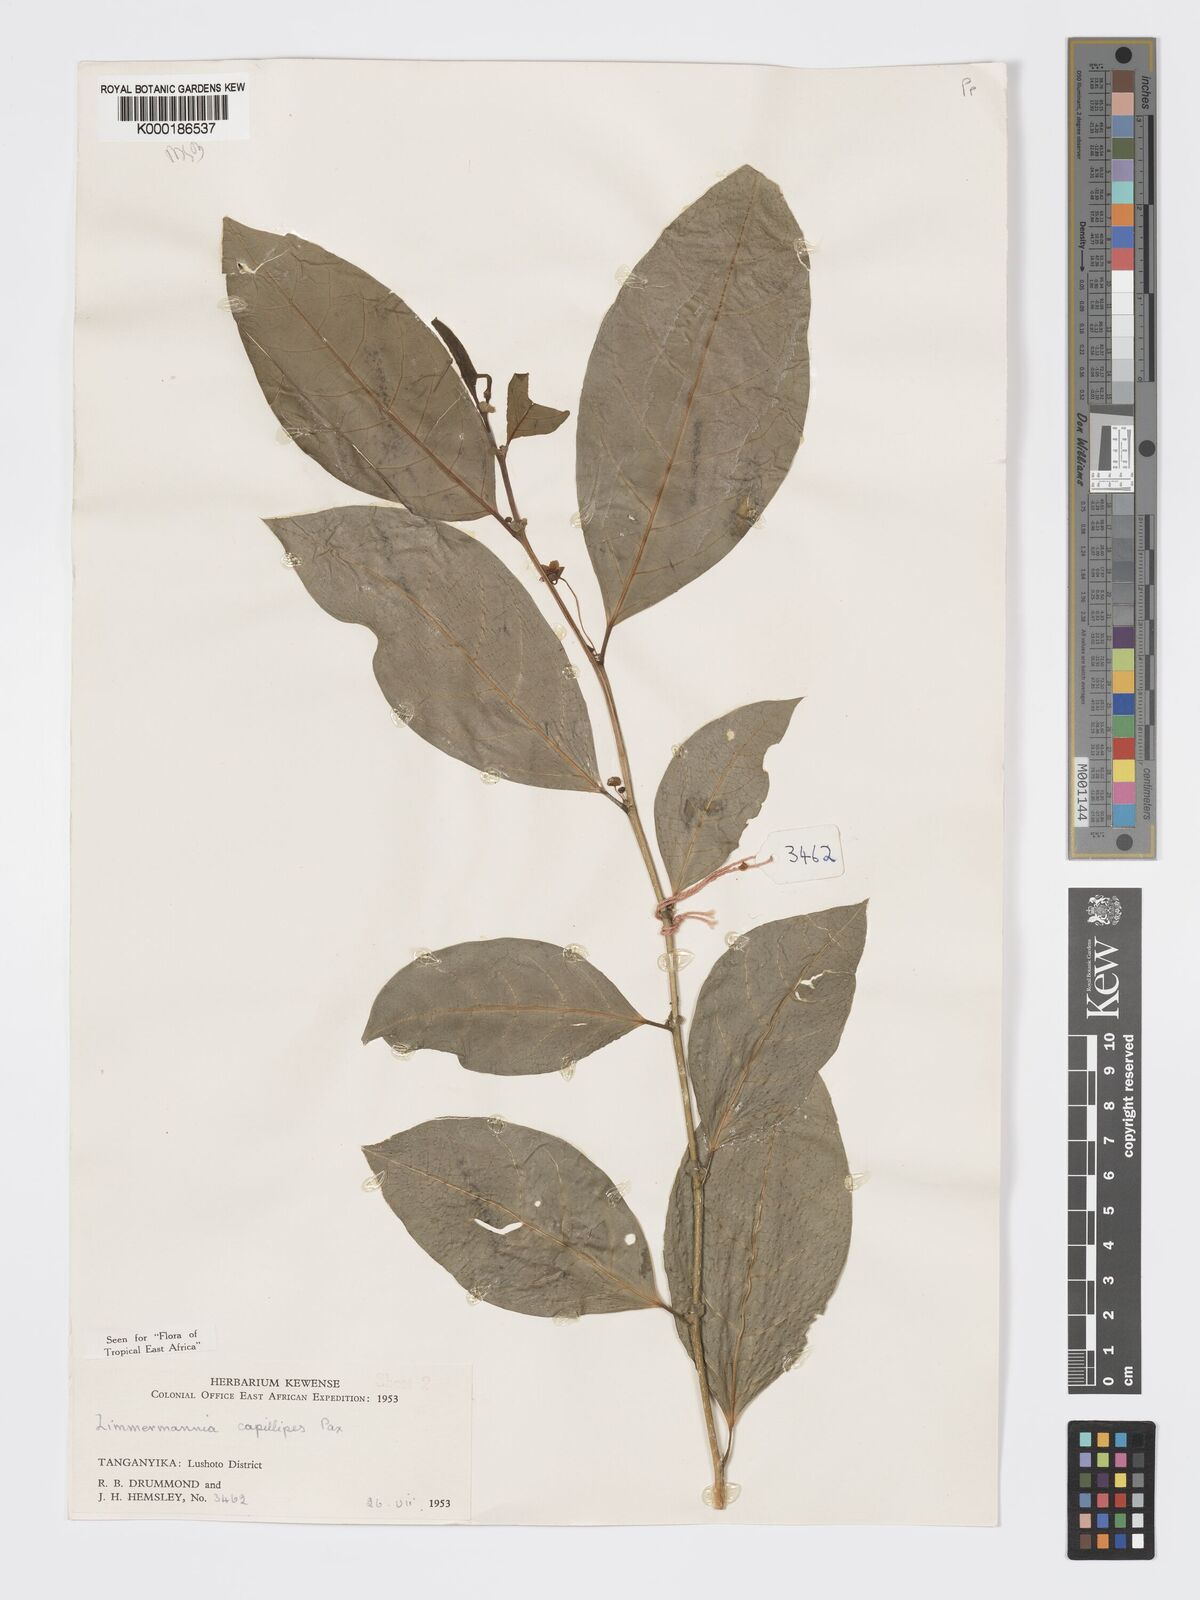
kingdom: Plantae
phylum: Tracheophyta
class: Magnoliopsida
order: Malpighiales
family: Phyllanthaceae
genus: Meineckia
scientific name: Meineckia paxii
